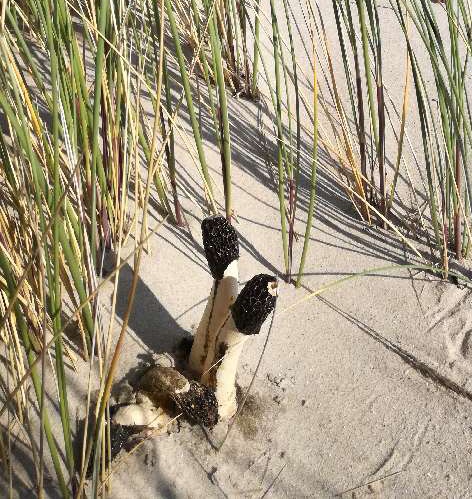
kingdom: Fungi
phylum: Basidiomycota
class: Agaricomycetes
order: Phallales
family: Phallaceae
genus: Phallus
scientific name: Phallus hadriani
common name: sand-stinksvamp
